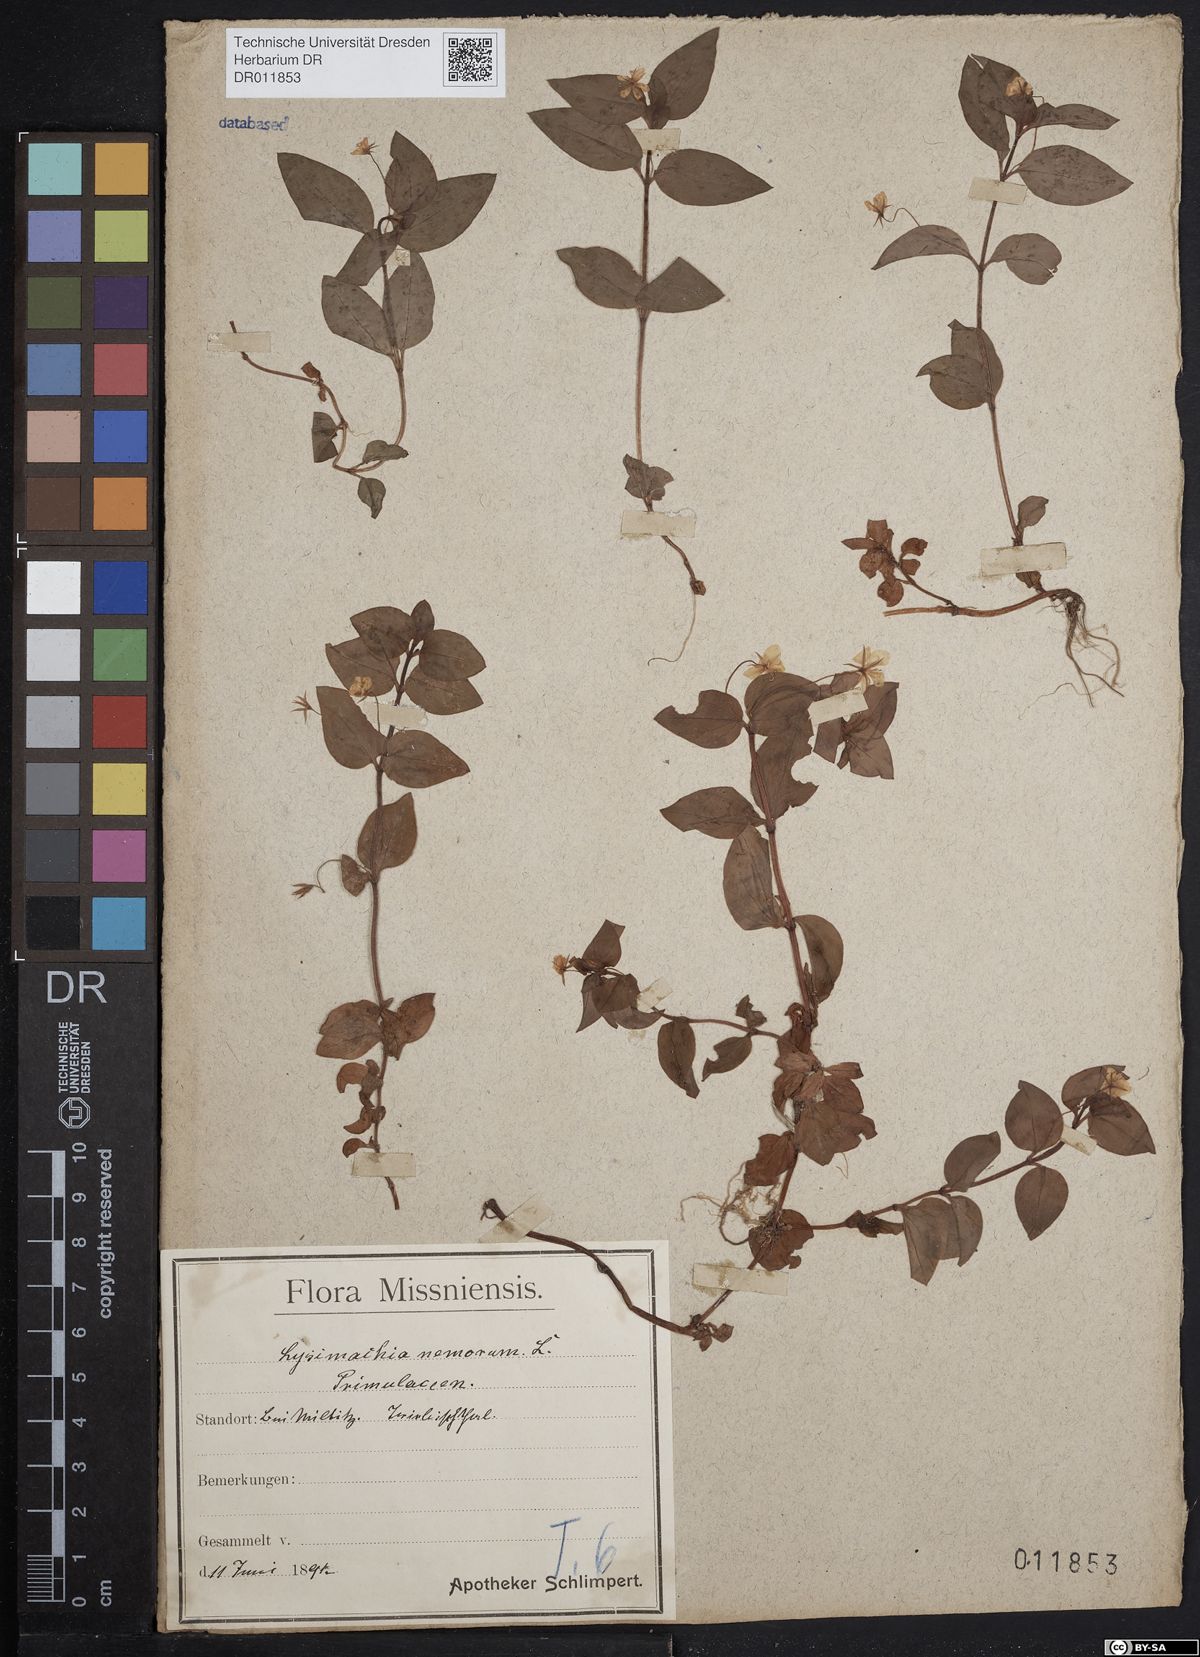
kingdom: Plantae
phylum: Tracheophyta
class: Magnoliopsida
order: Ericales
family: Primulaceae
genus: Lysimachia
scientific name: Lysimachia nemorum
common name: Yellow pimpernel
